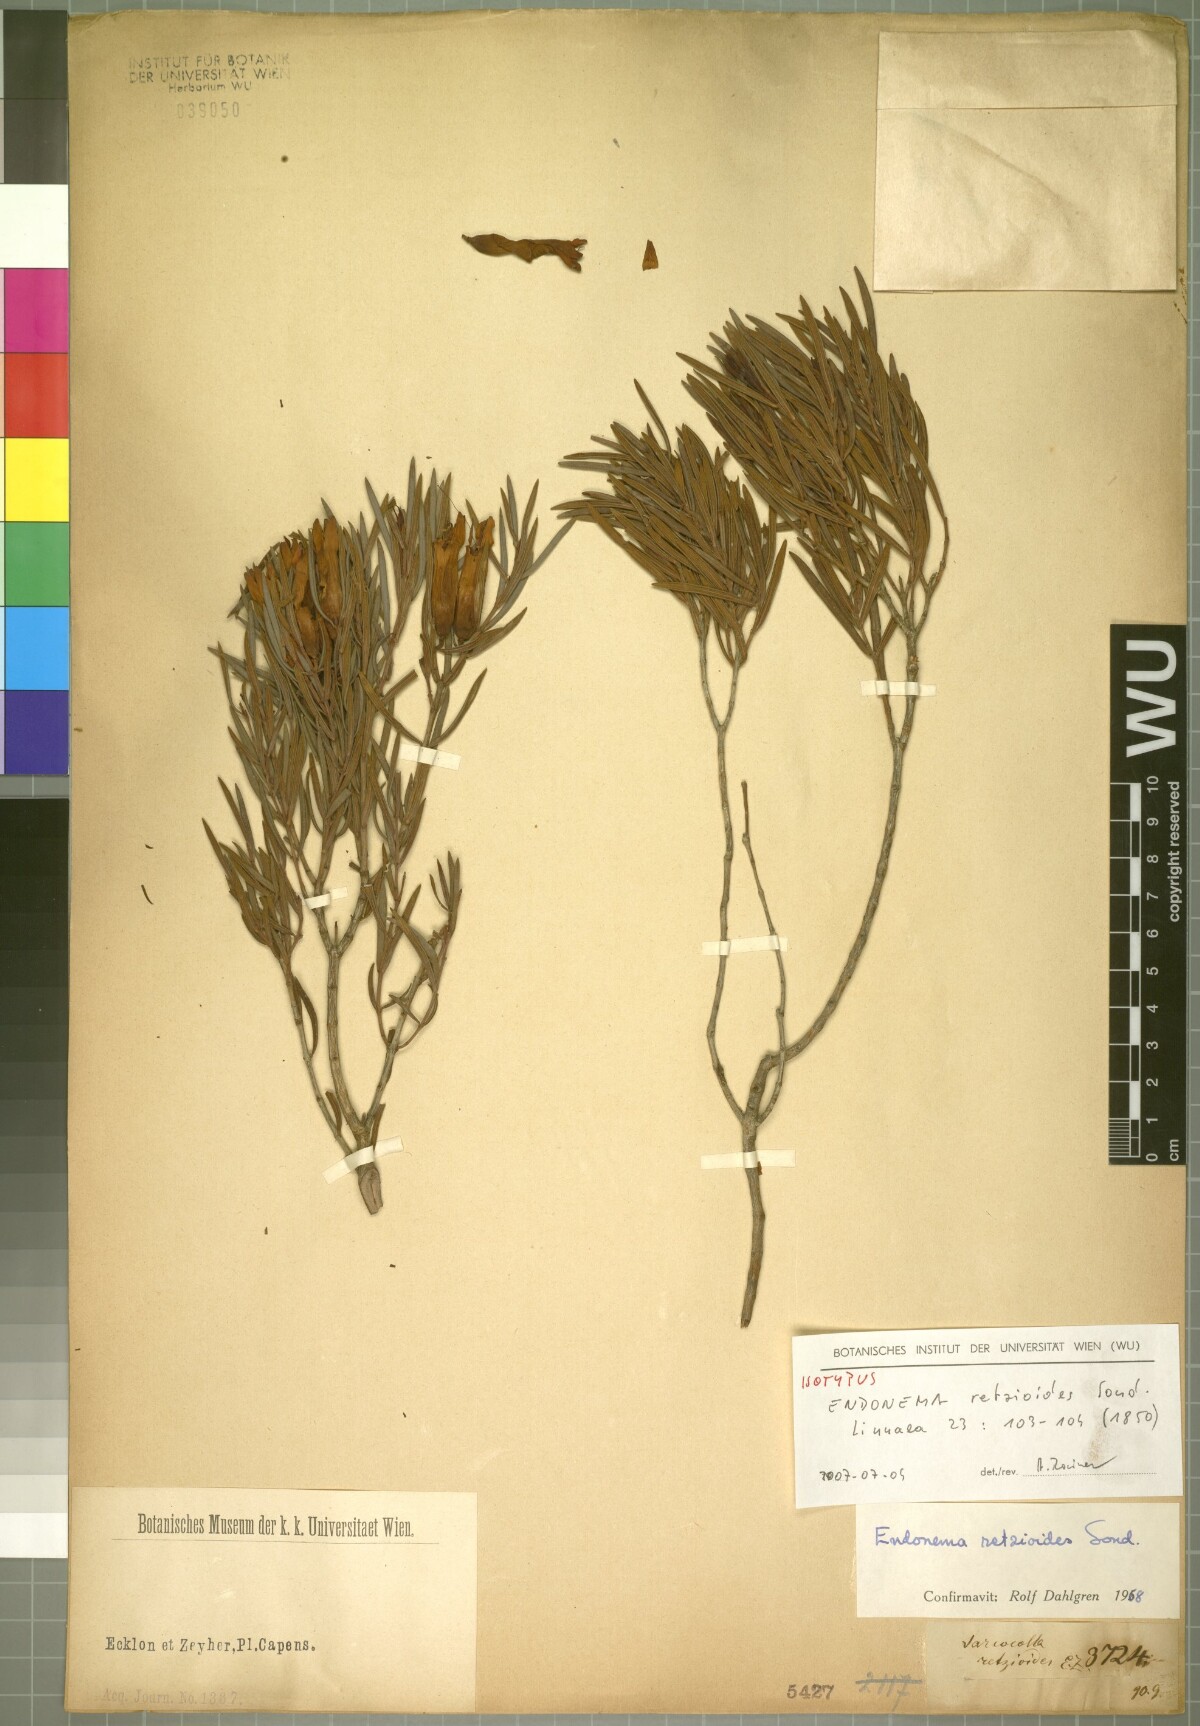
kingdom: Plantae
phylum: Tracheophyta
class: Magnoliopsida
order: Myrtales
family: Penaeaceae
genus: Endonema
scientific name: Endonema retzioides
